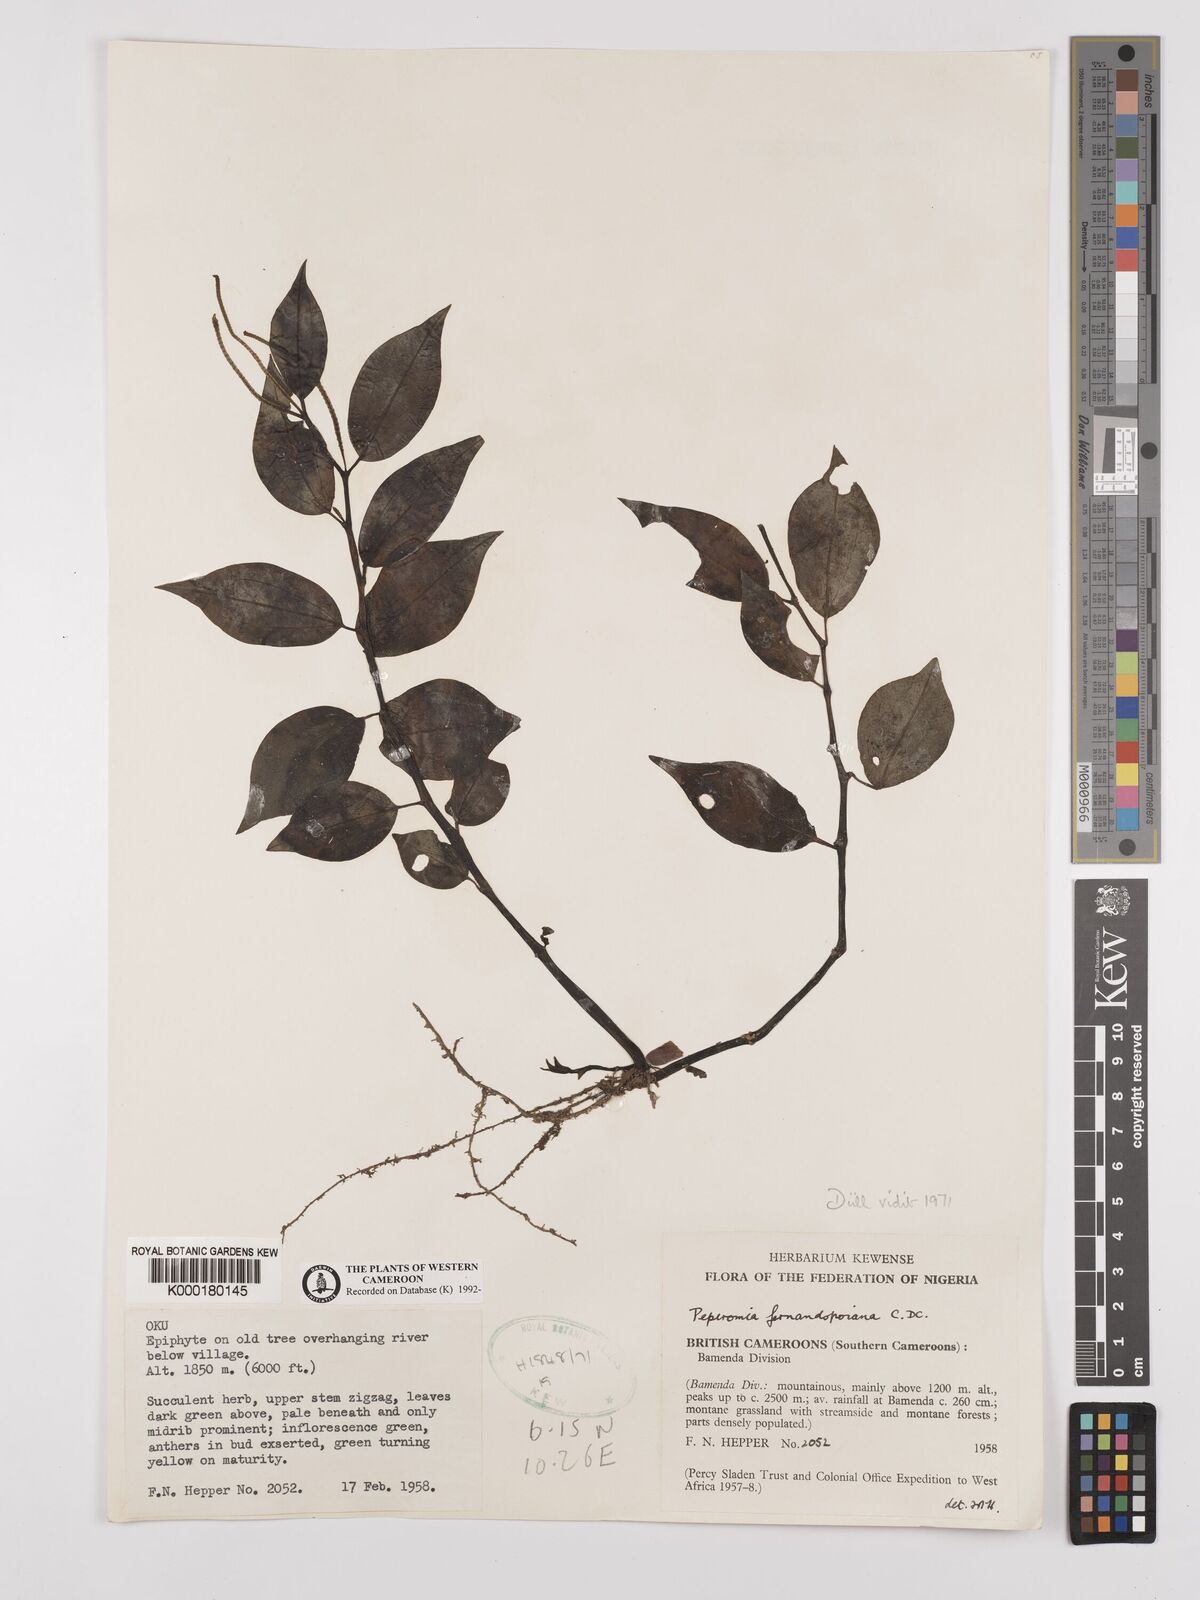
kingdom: Plantae
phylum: Tracheophyta
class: Magnoliopsida
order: Piperales
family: Piperaceae
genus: Peperomia
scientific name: Peperomia fernandopoiana
